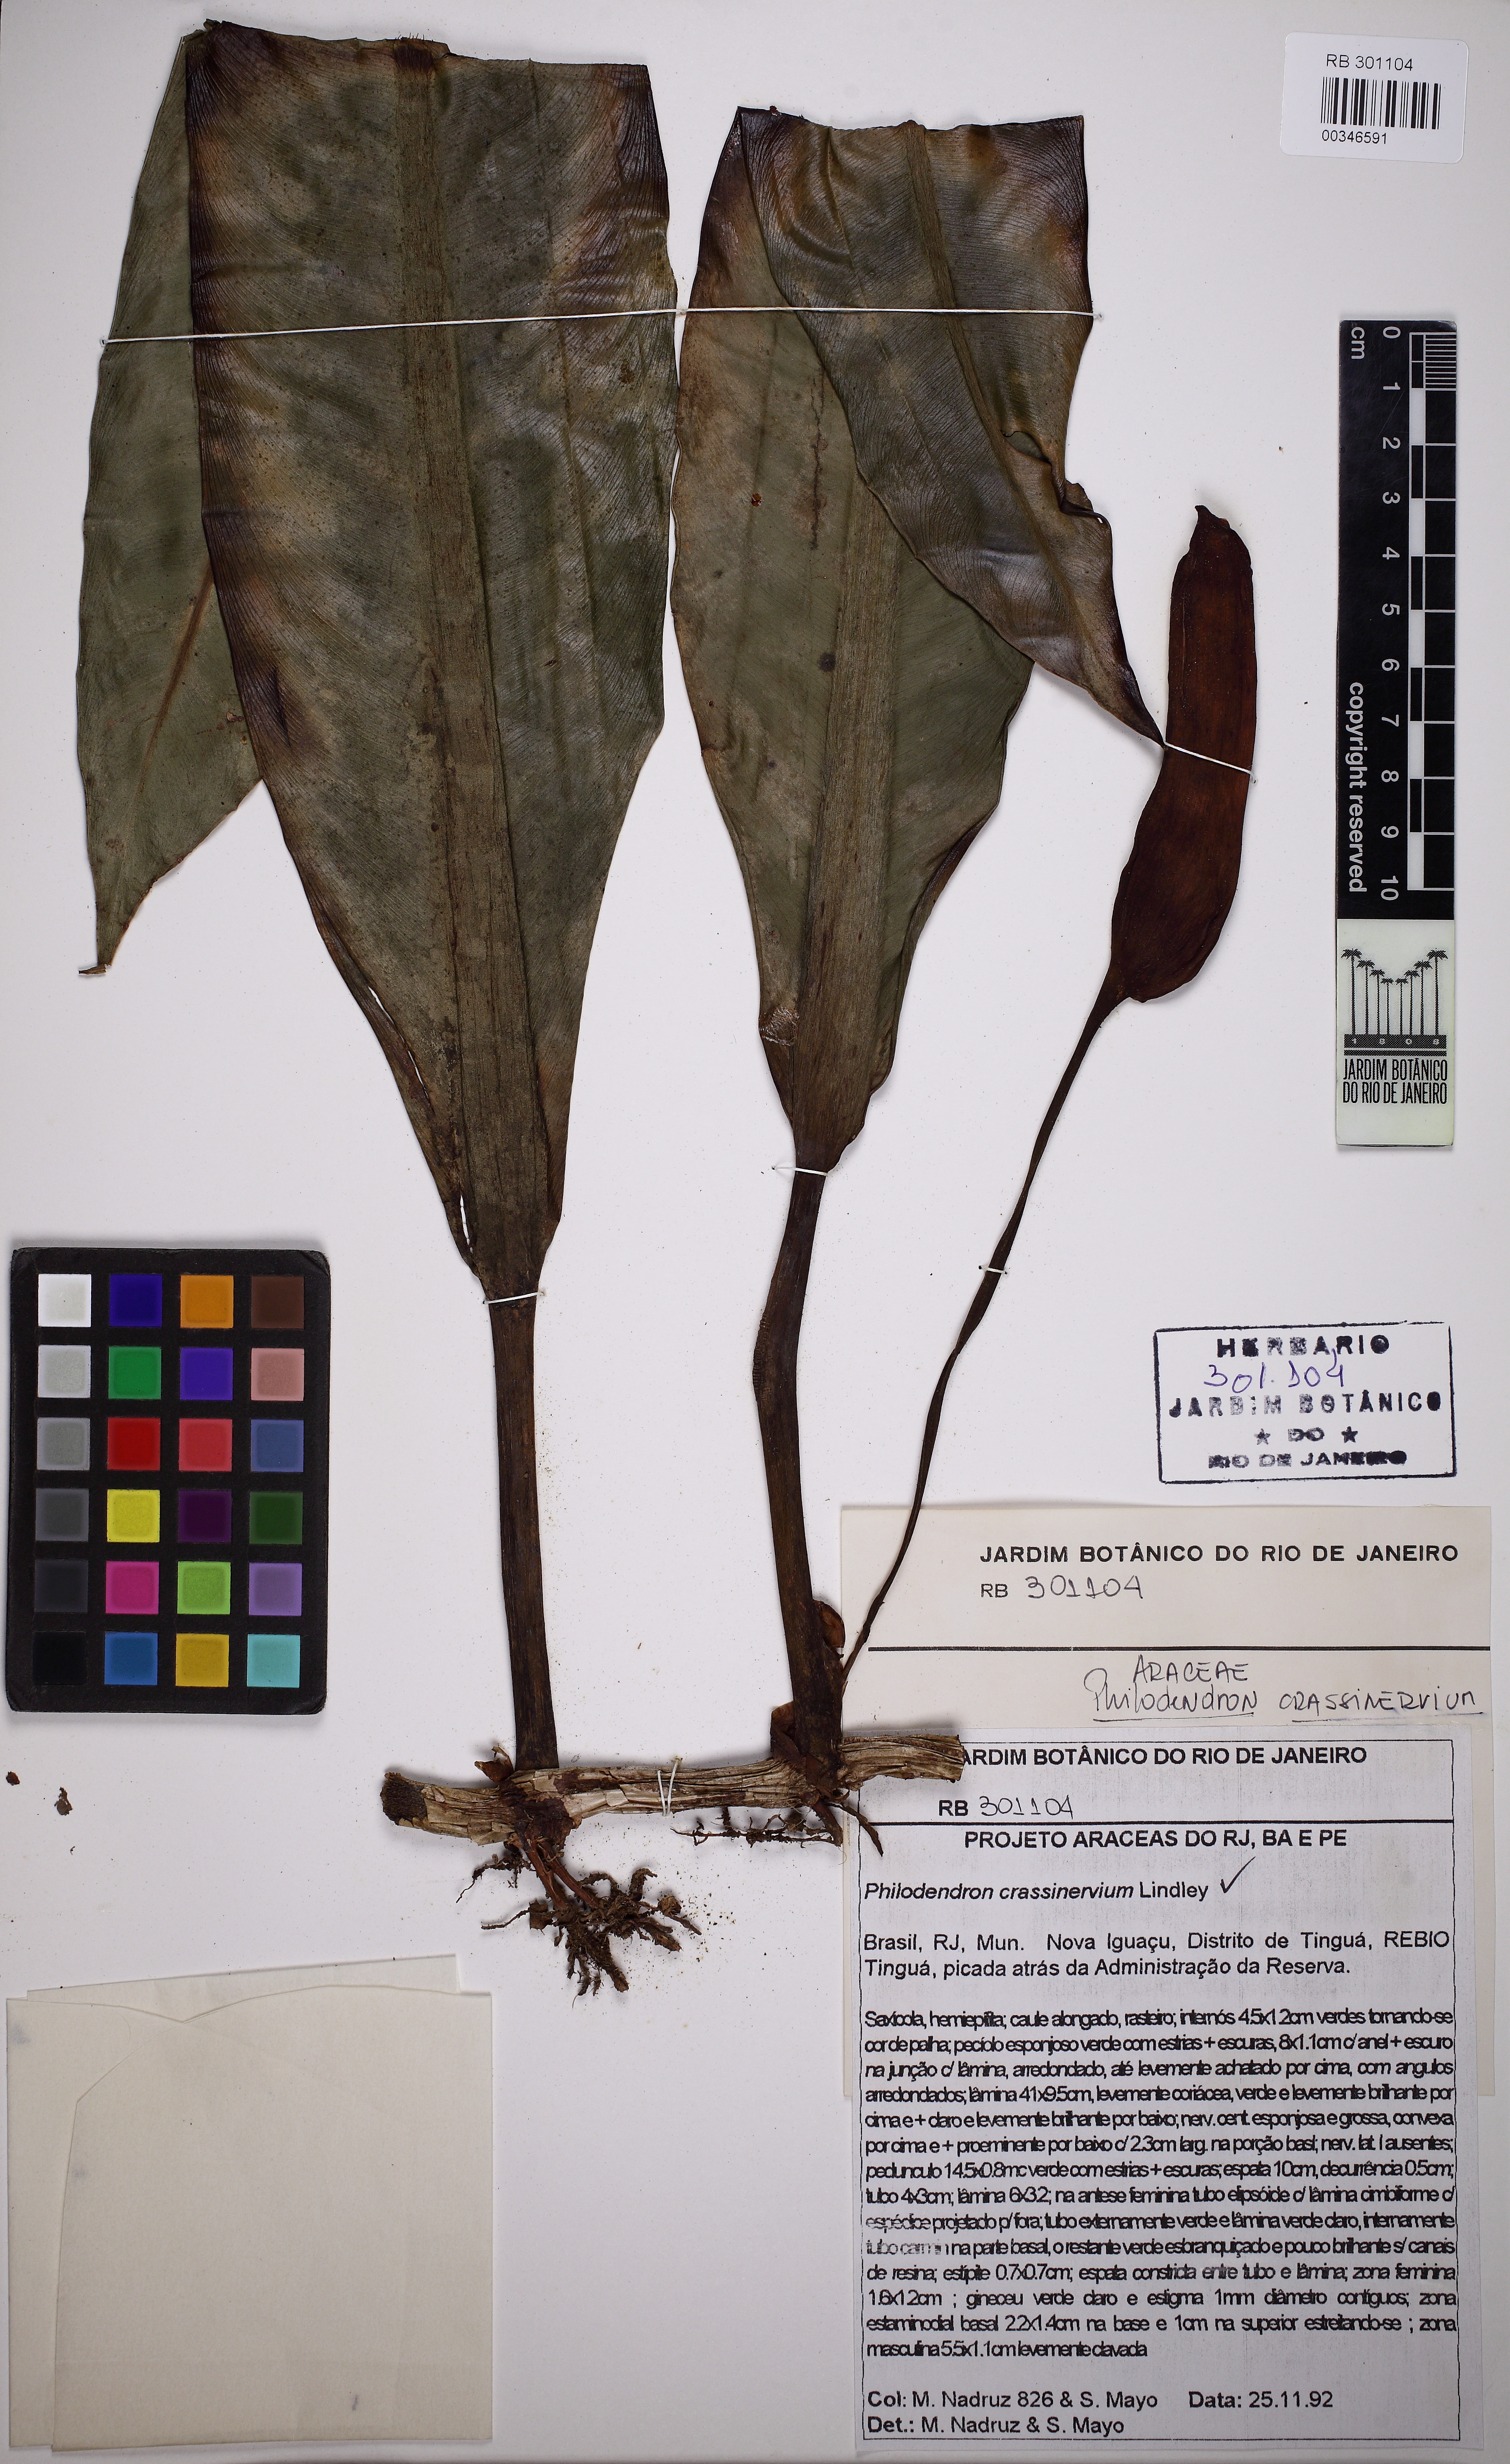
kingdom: Plantae
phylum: Tracheophyta
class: Liliopsida
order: Alismatales
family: Araceae
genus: Philodendron
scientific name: Philodendron crassinervium
